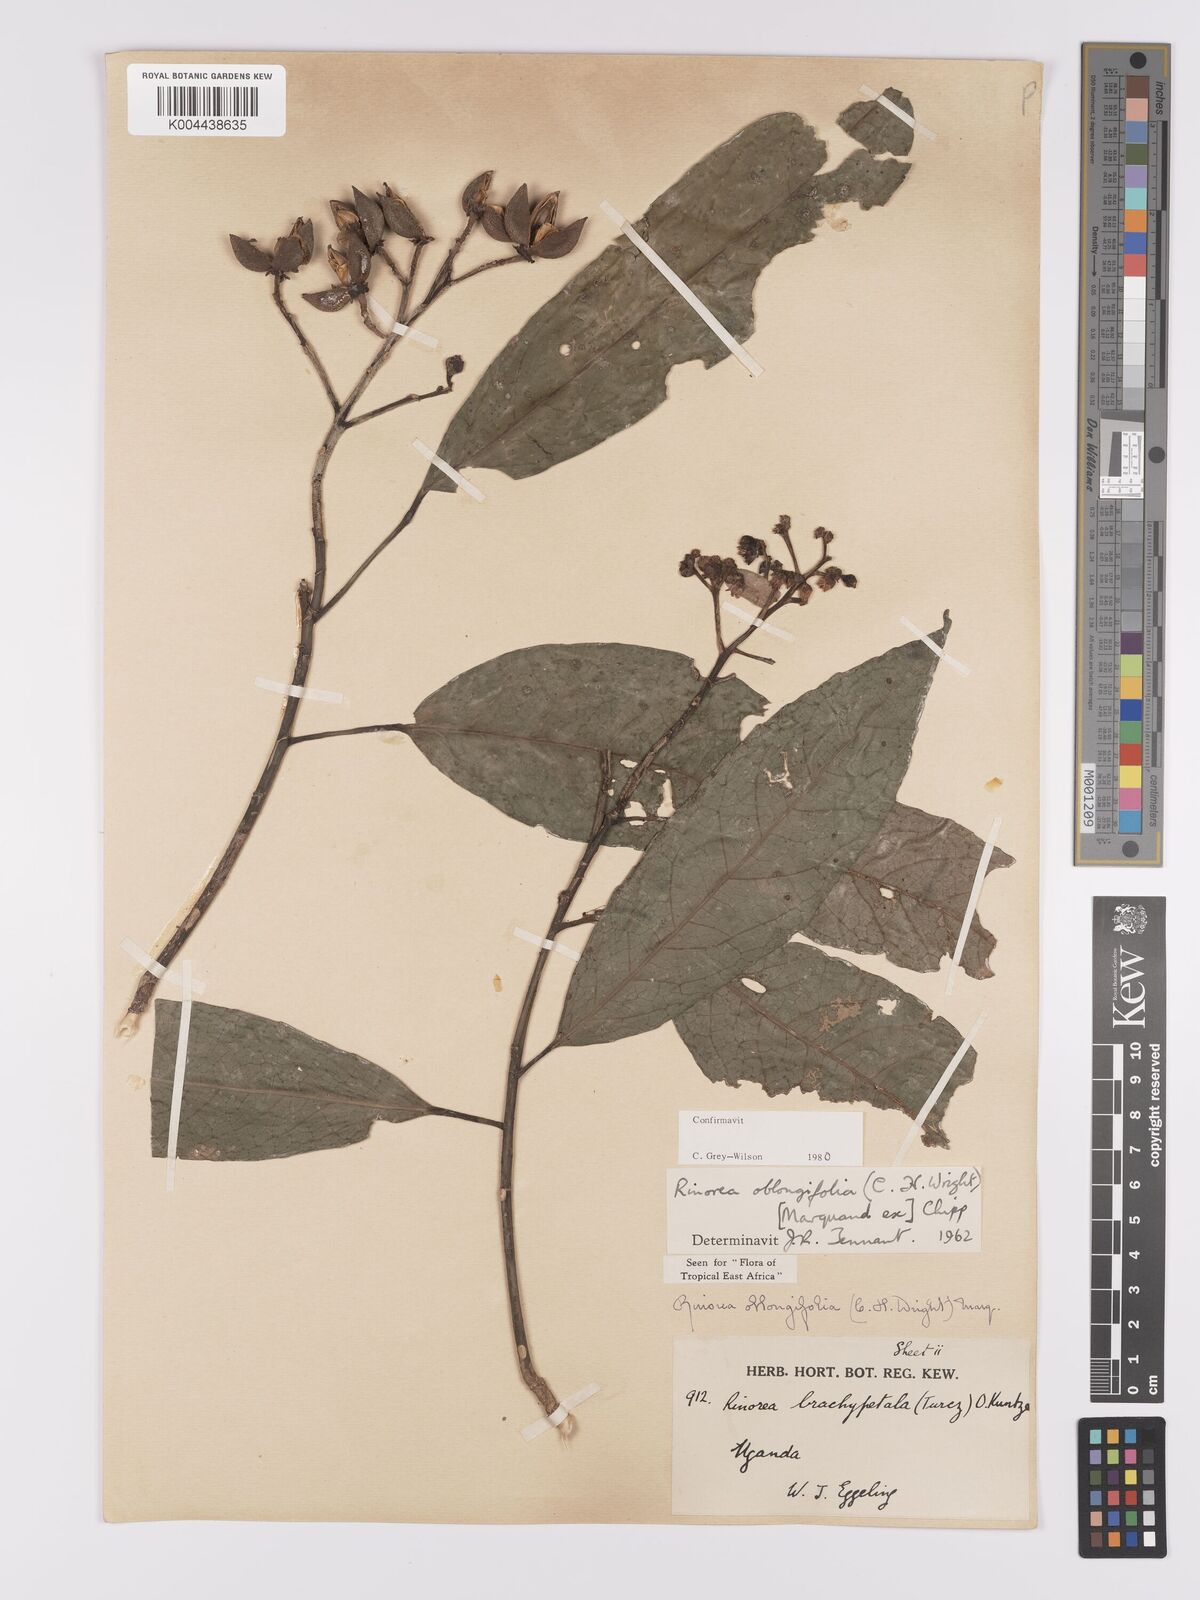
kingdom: Plantae
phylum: Tracheophyta
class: Magnoliopsida
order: Apiales
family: Pittosporaceae
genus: Marianthus
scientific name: Marianthus coeruleopunctatus
